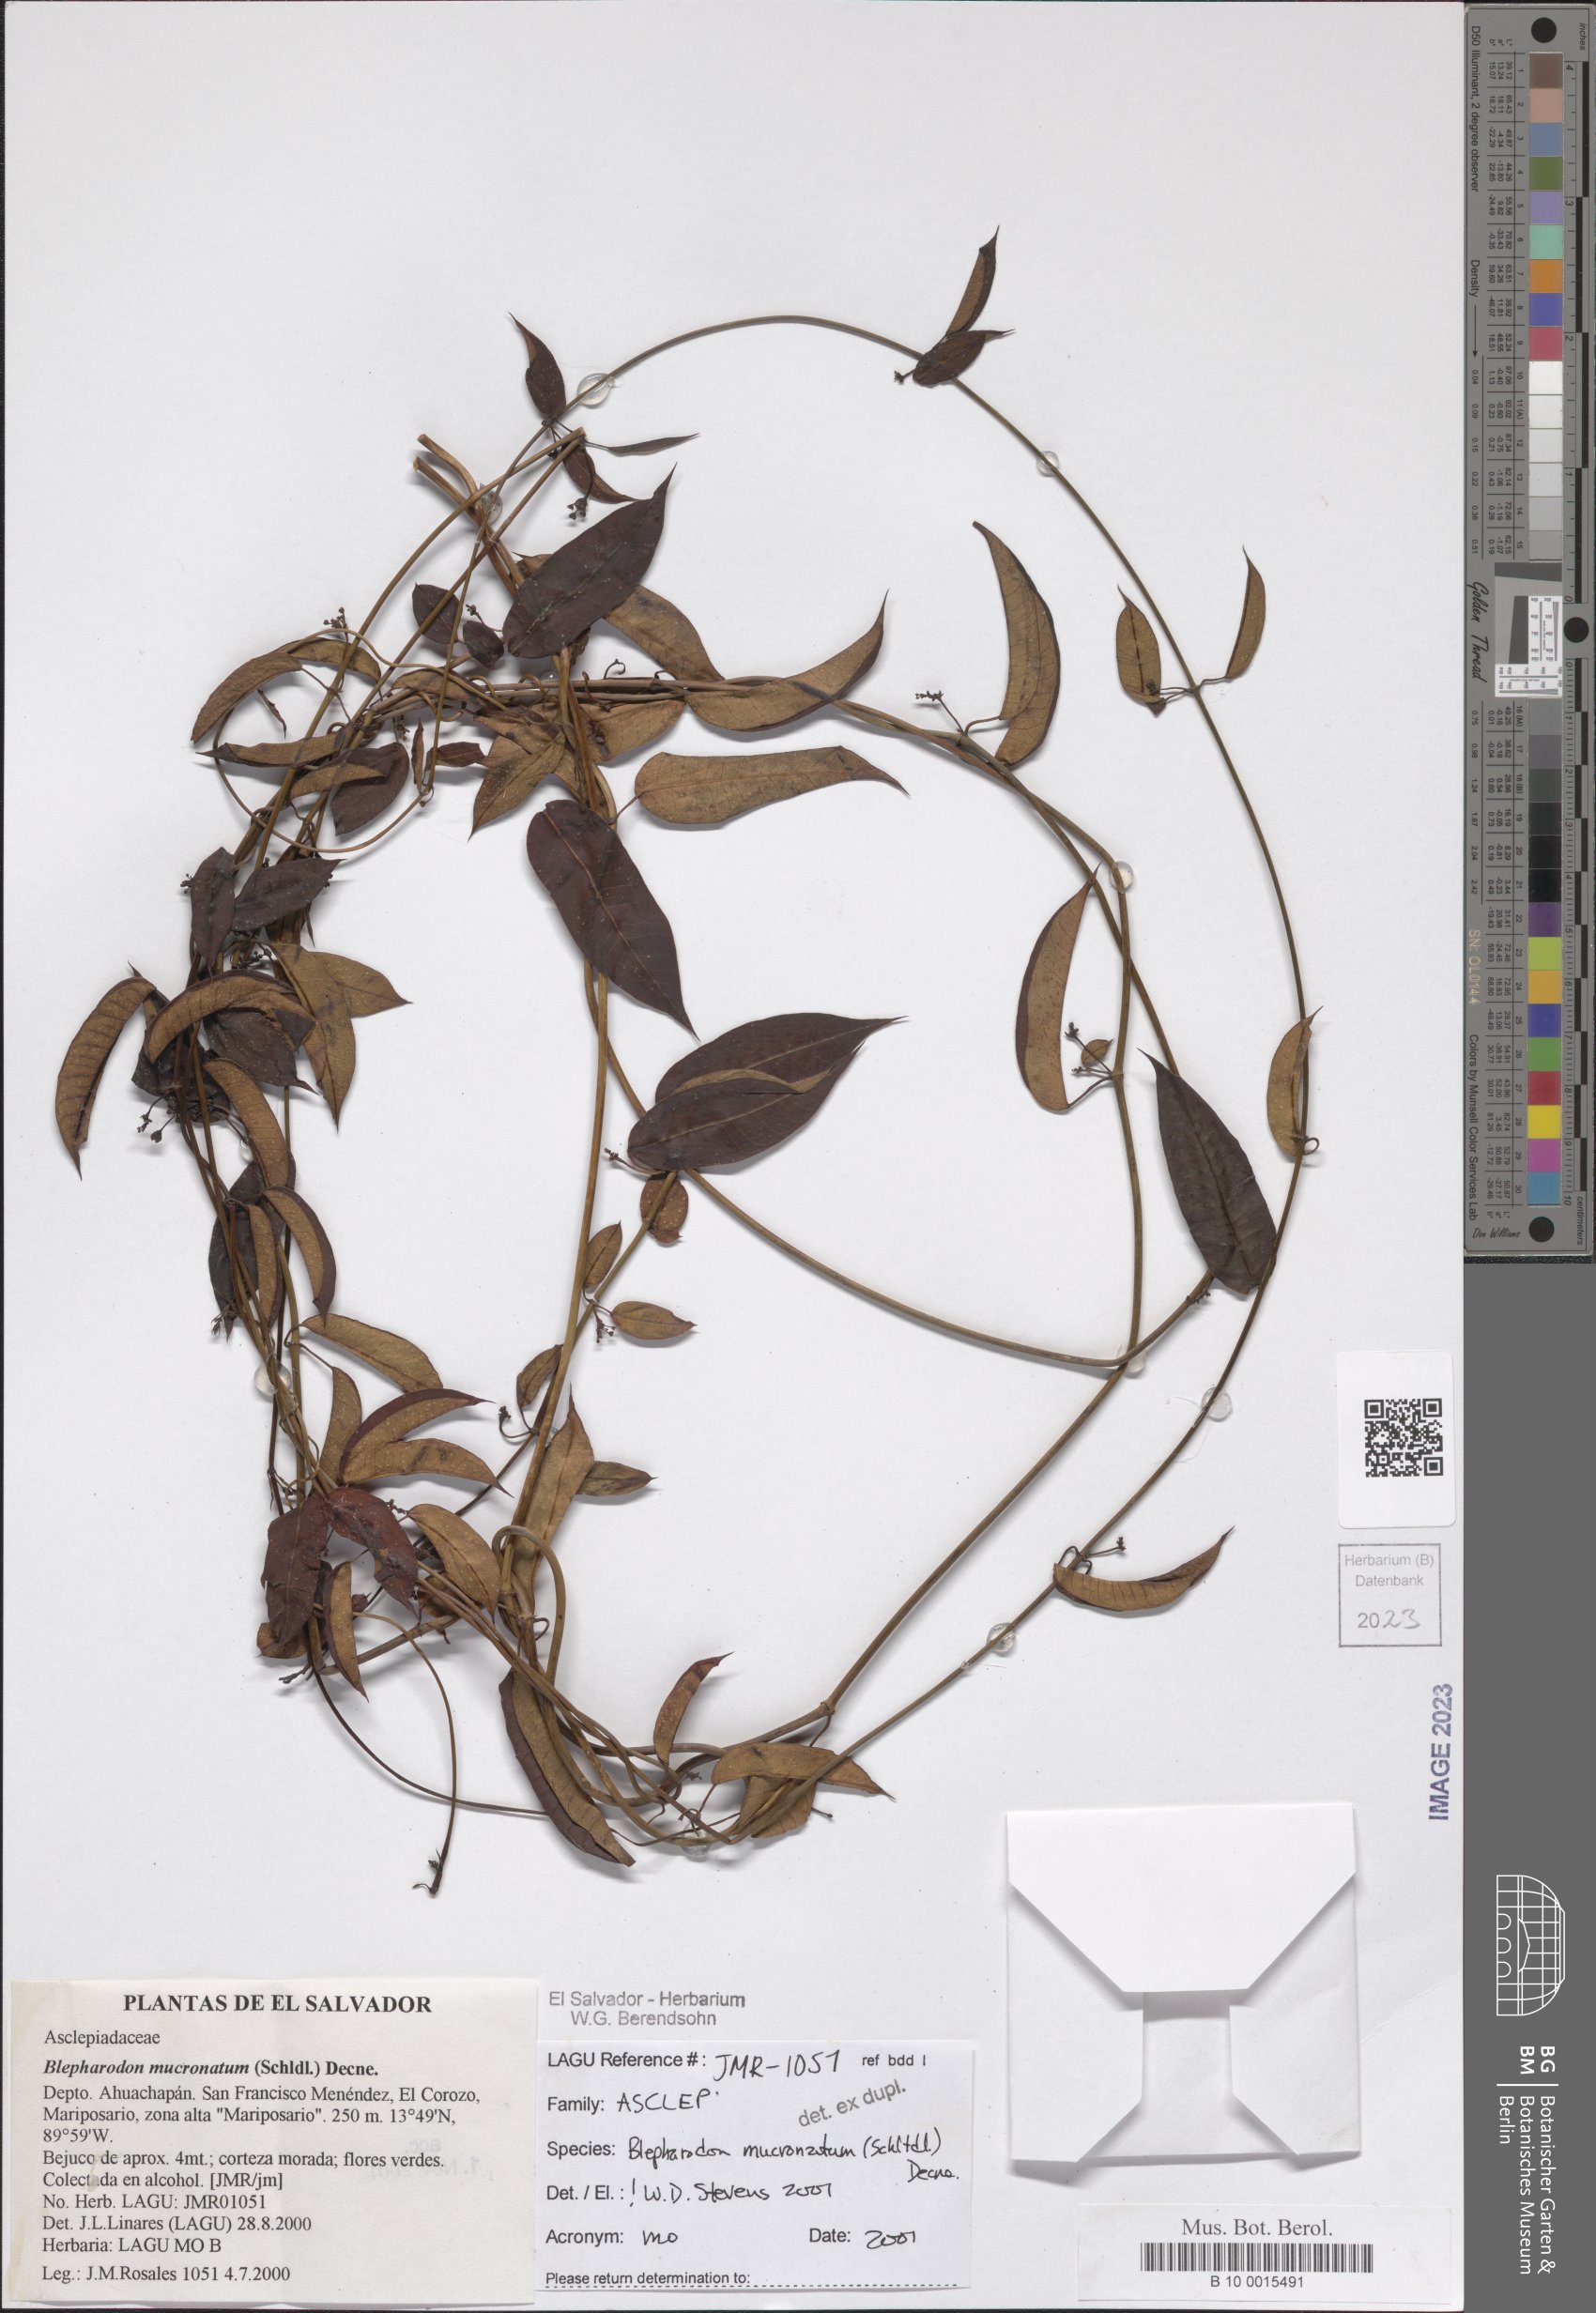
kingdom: Plantae
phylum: Tracheophyta
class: Magnoliopsida
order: Gentianales
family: Apocynaceae
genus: Vailia
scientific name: Vailia anomala
